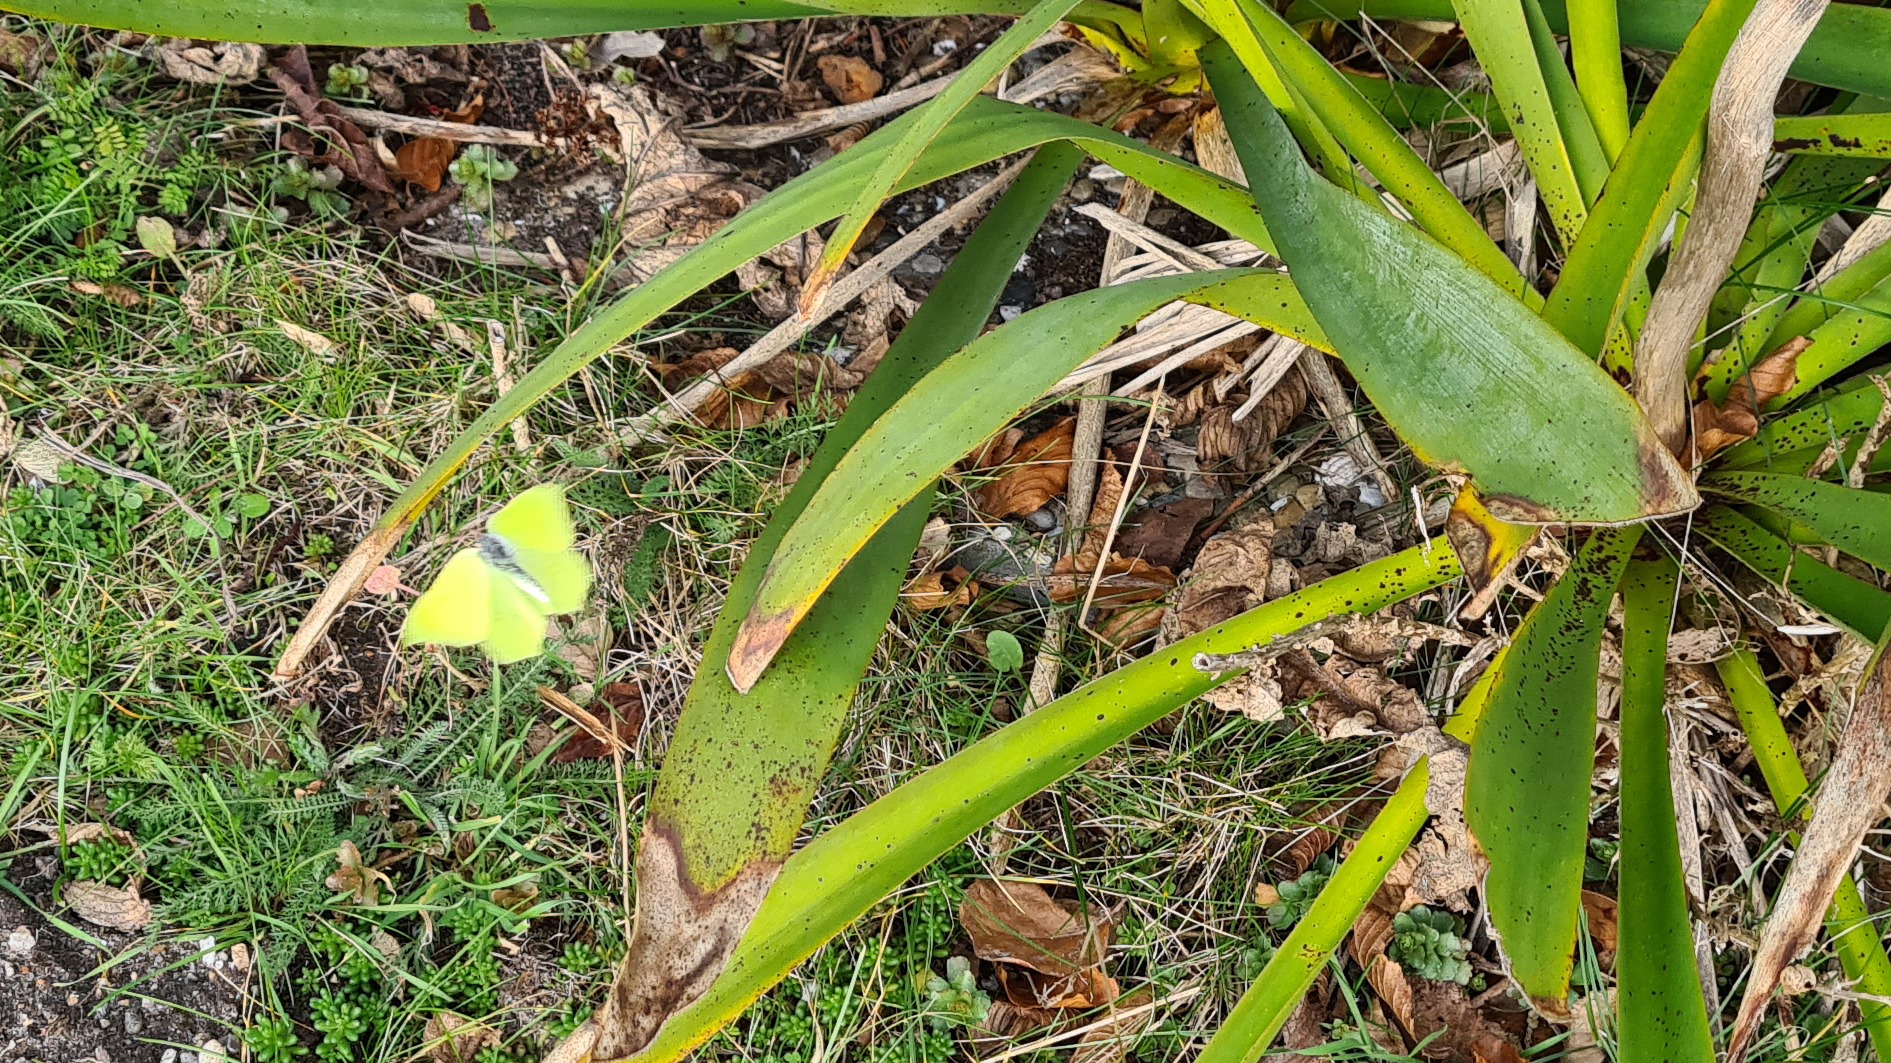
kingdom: Animalia
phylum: Arthropoda
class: Insecta
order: Lepidoptera
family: Pieridae
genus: Gonepteryx
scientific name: Gonepteryx rhamni
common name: Citronsommerfugl
